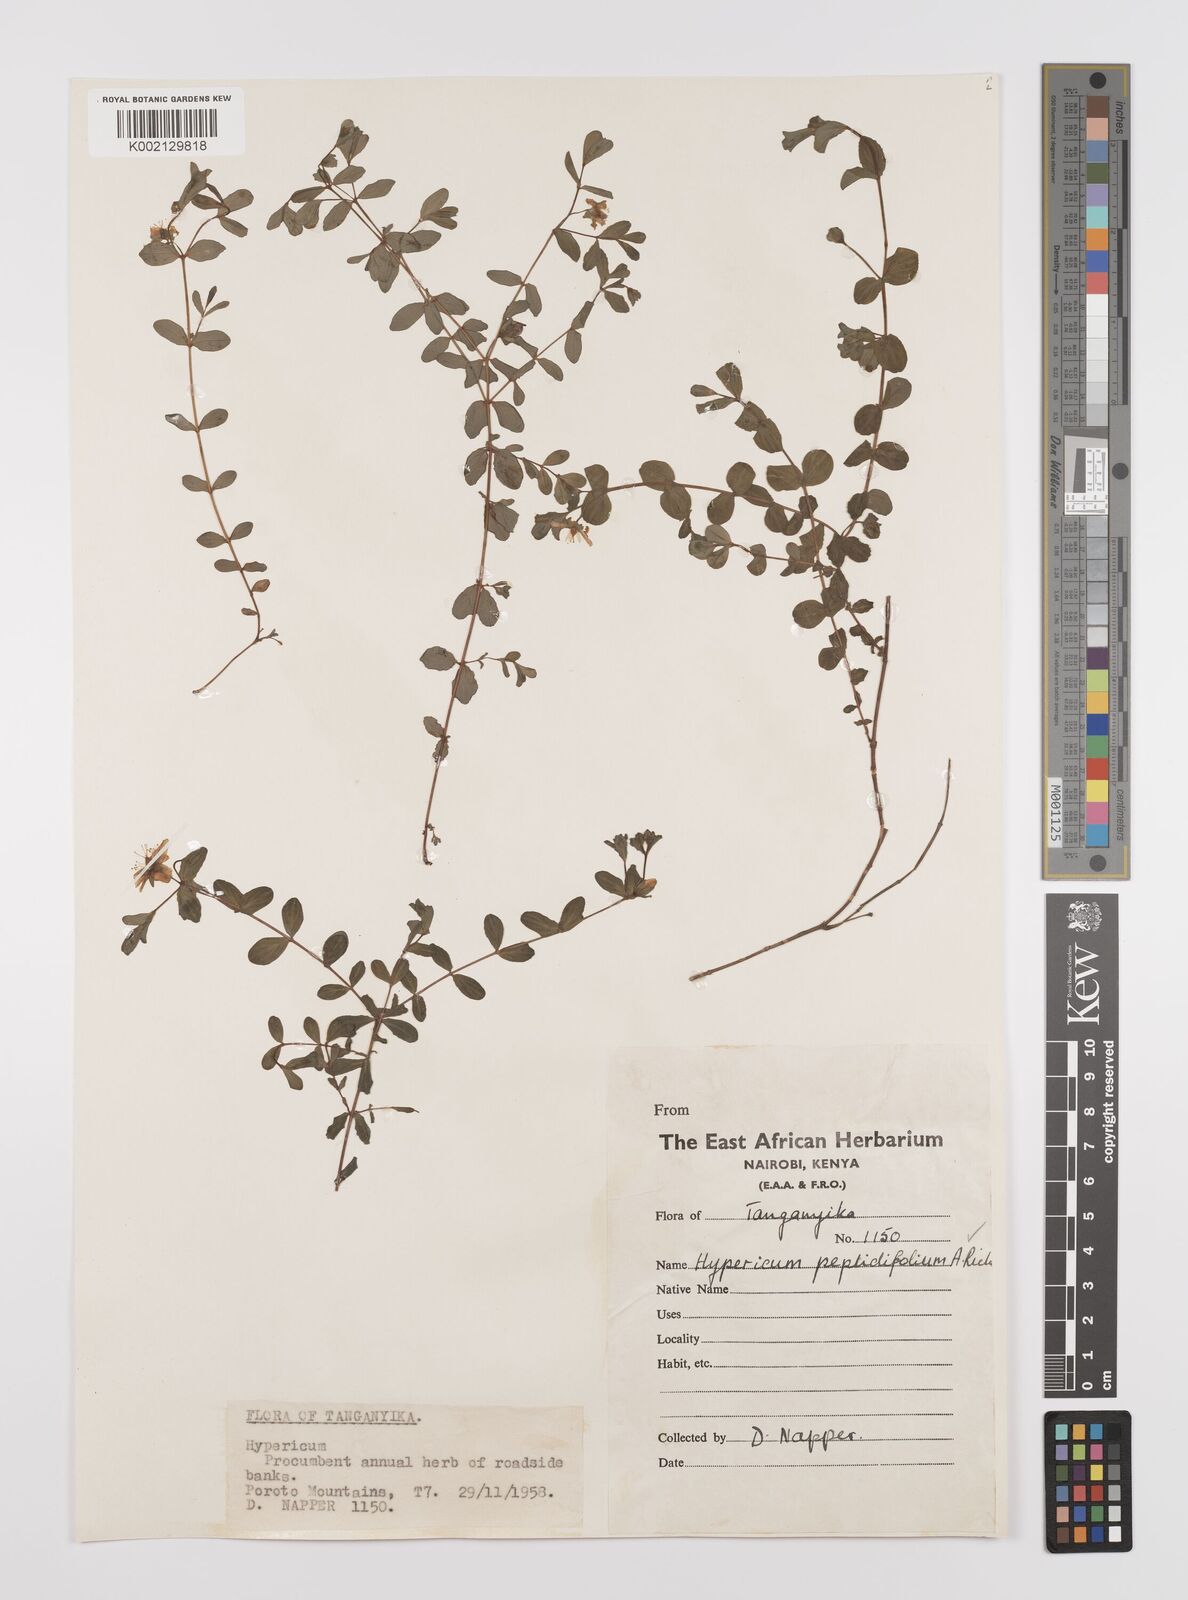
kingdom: Plantae
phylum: Tracheophyta
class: Magnoliopsida
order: Malpighiales
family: Hypericaceae
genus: Hypericum
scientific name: Hypericum peplidifolium
